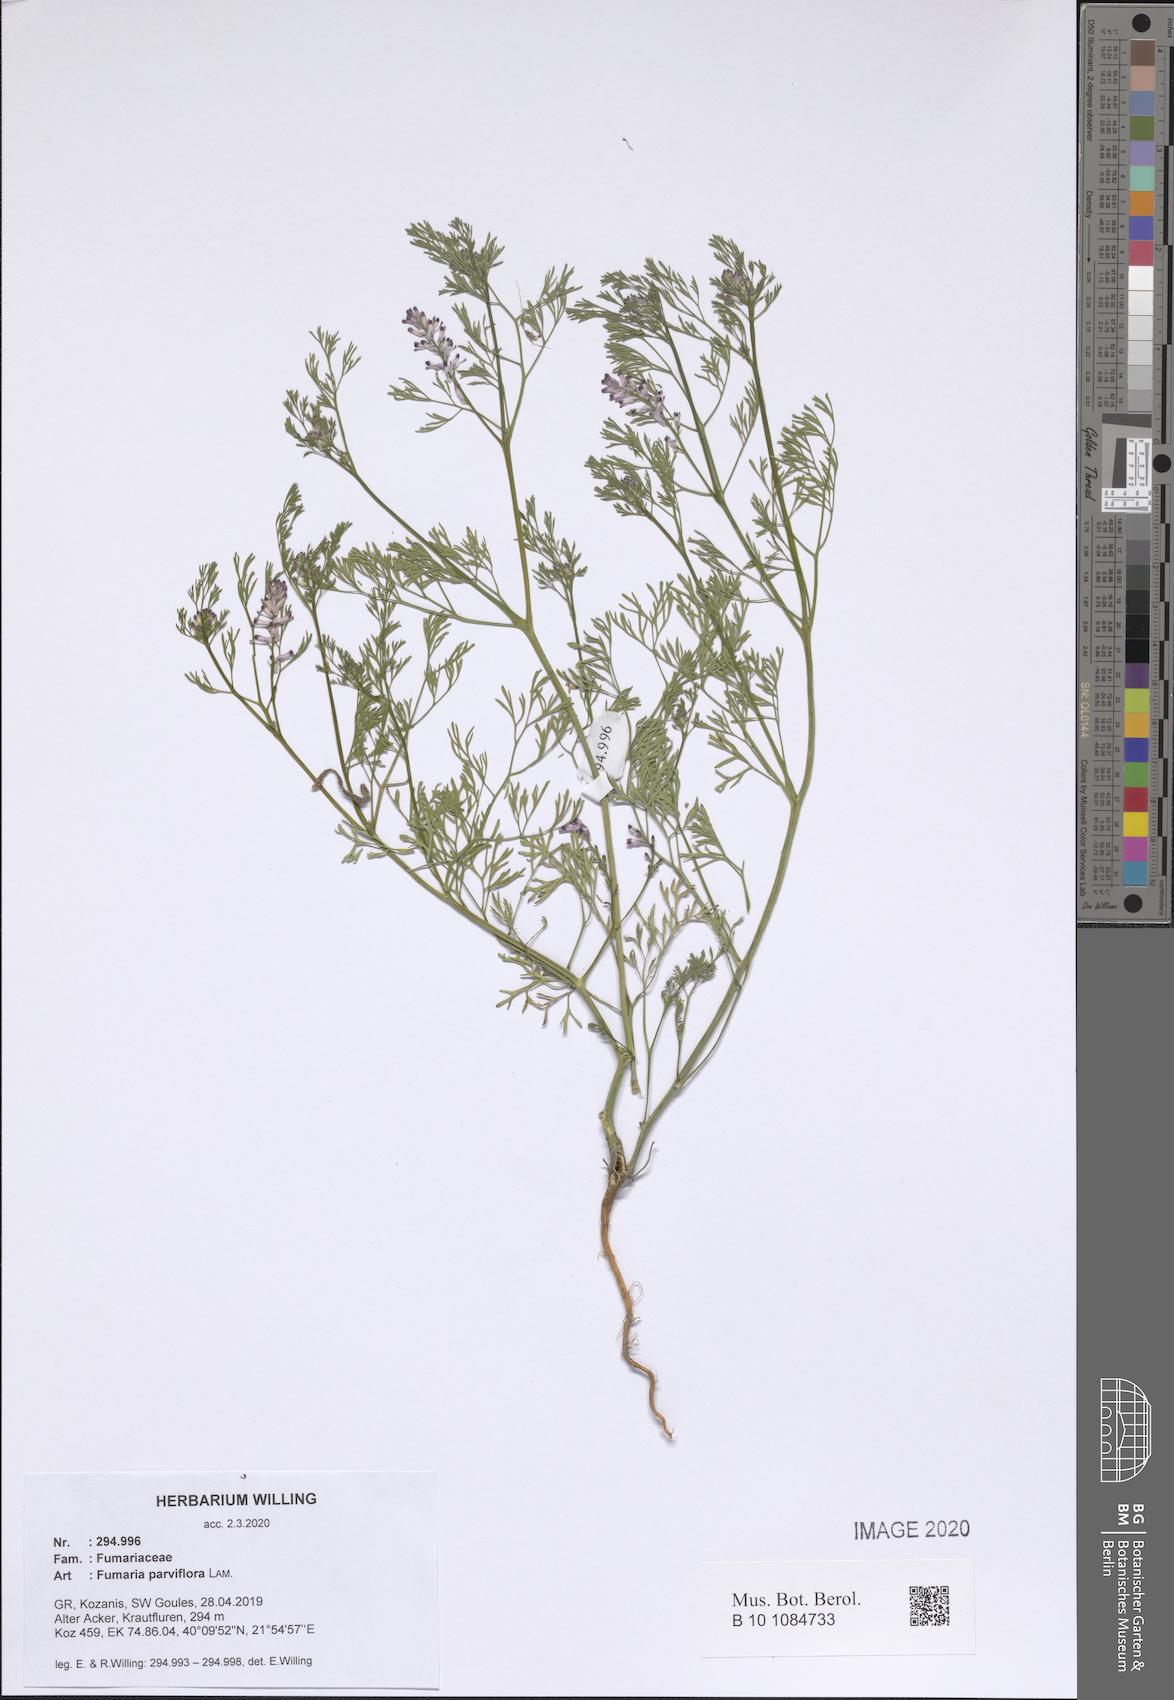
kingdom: Plantae
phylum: Tracheophyta
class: Magnoliopsida
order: Ranunculales
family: Papaveraceae
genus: Fumaria
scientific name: Fumaria parviflora
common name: Fine-leaved fumitory
